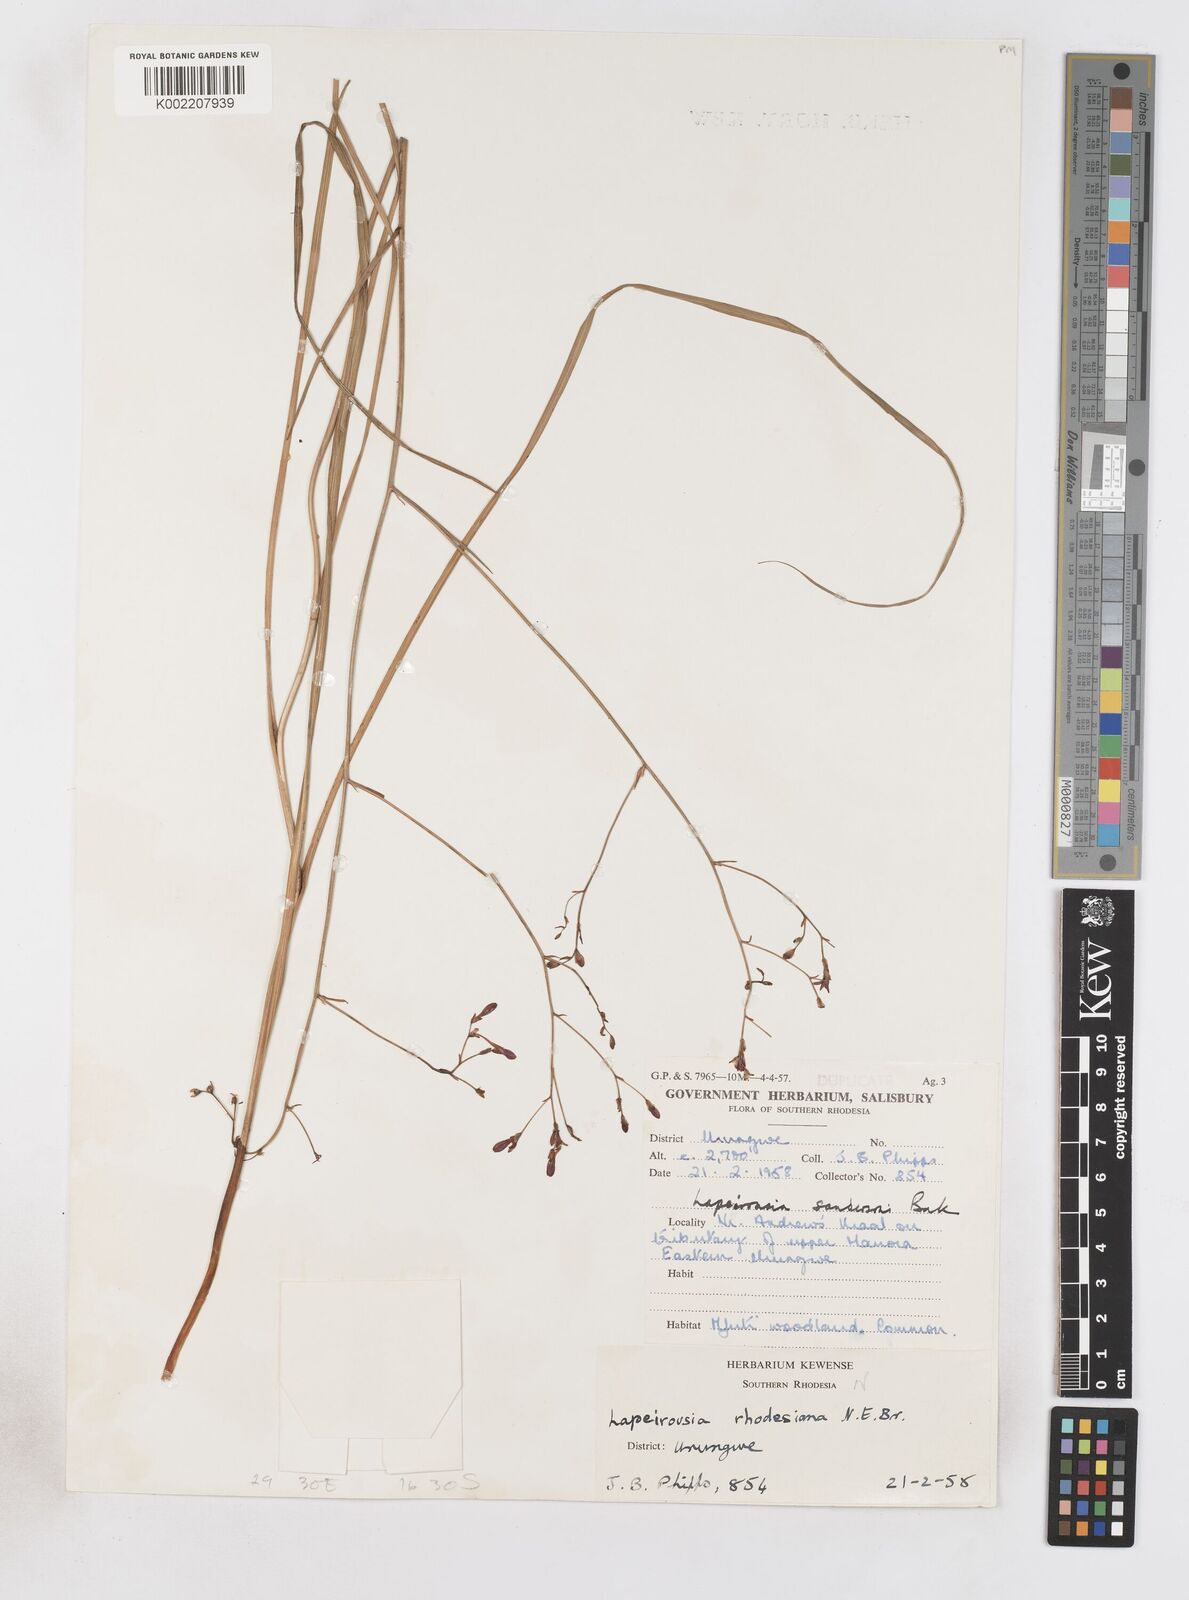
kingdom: Plantae
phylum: Tracheophyta
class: Liliopsida
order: Asparagales
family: Iridaceae
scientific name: Iridaceae
